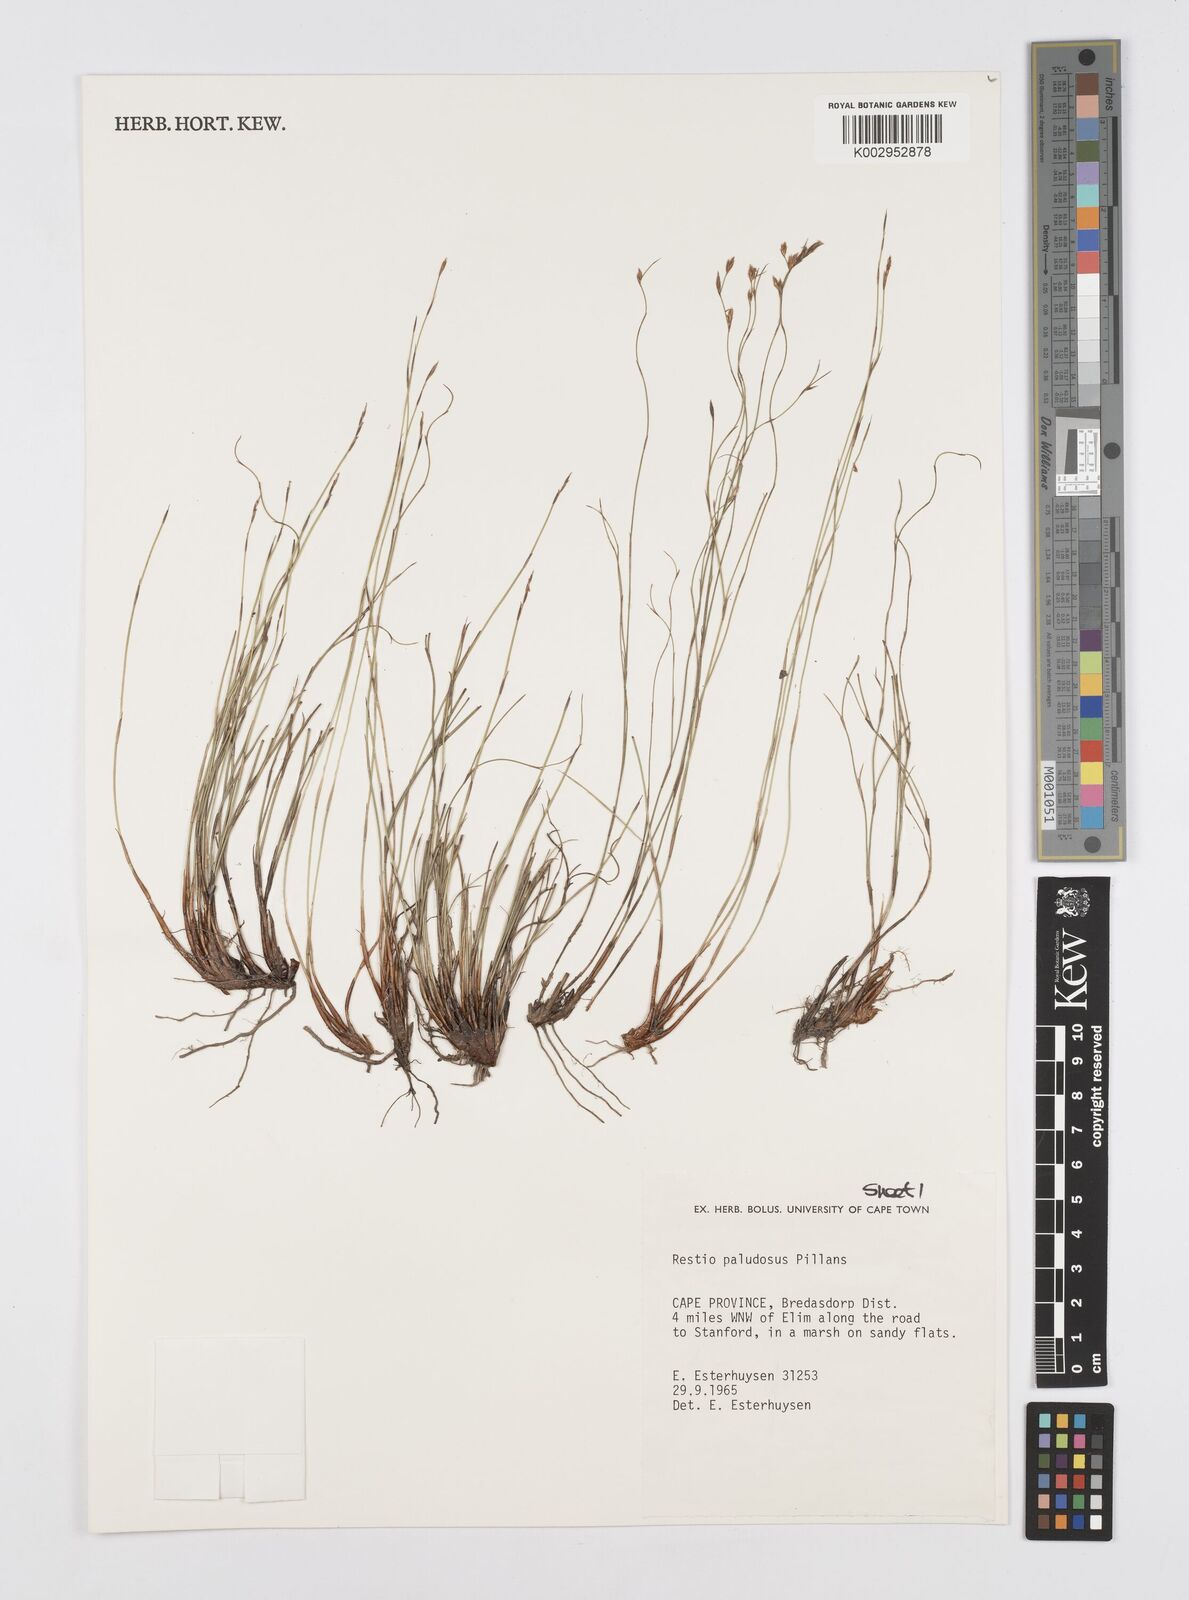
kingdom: Plantae
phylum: Tracheophyta
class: Liliopsida
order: Poales
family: Restionaceae
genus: Restio
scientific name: Restio paludosus
